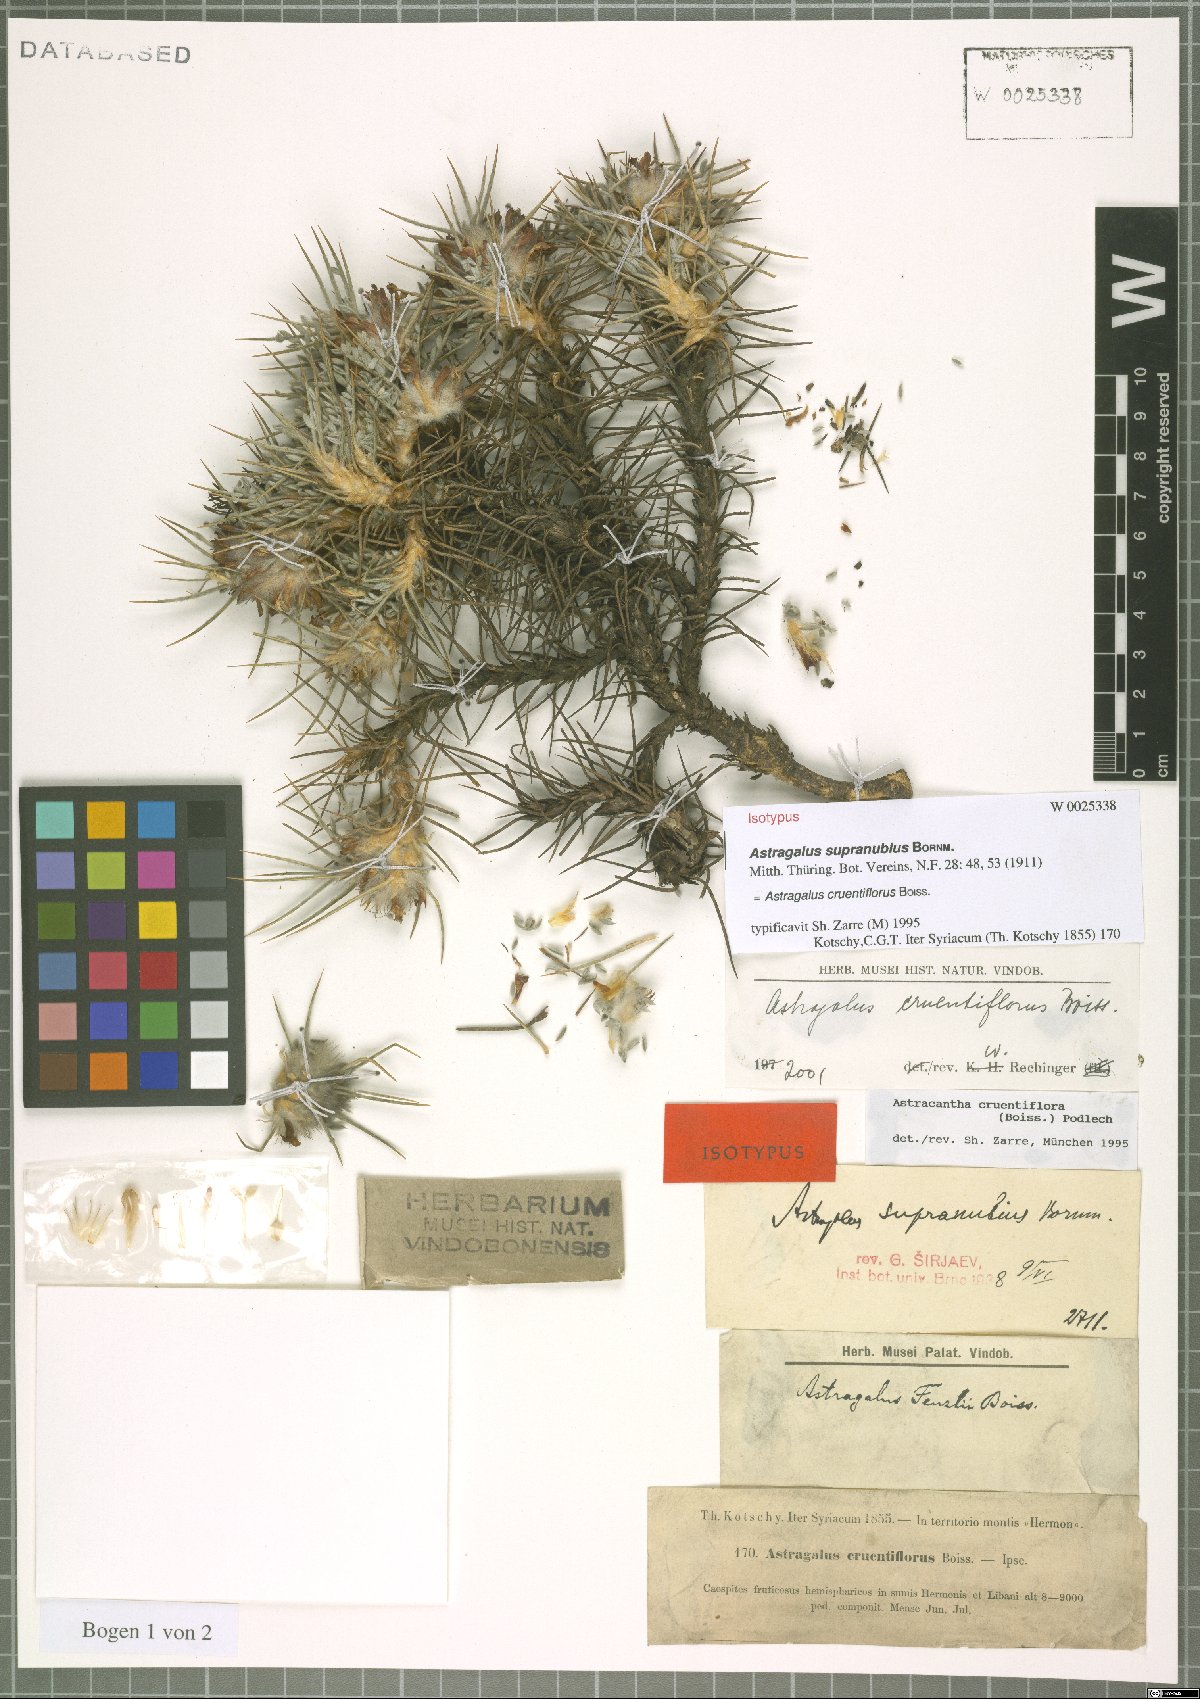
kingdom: Plantae
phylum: Tracheophyta
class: Magnoliopsida
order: Fabales
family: Fabaceae
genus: Astragalus
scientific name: Astragalus cruentiflorus
